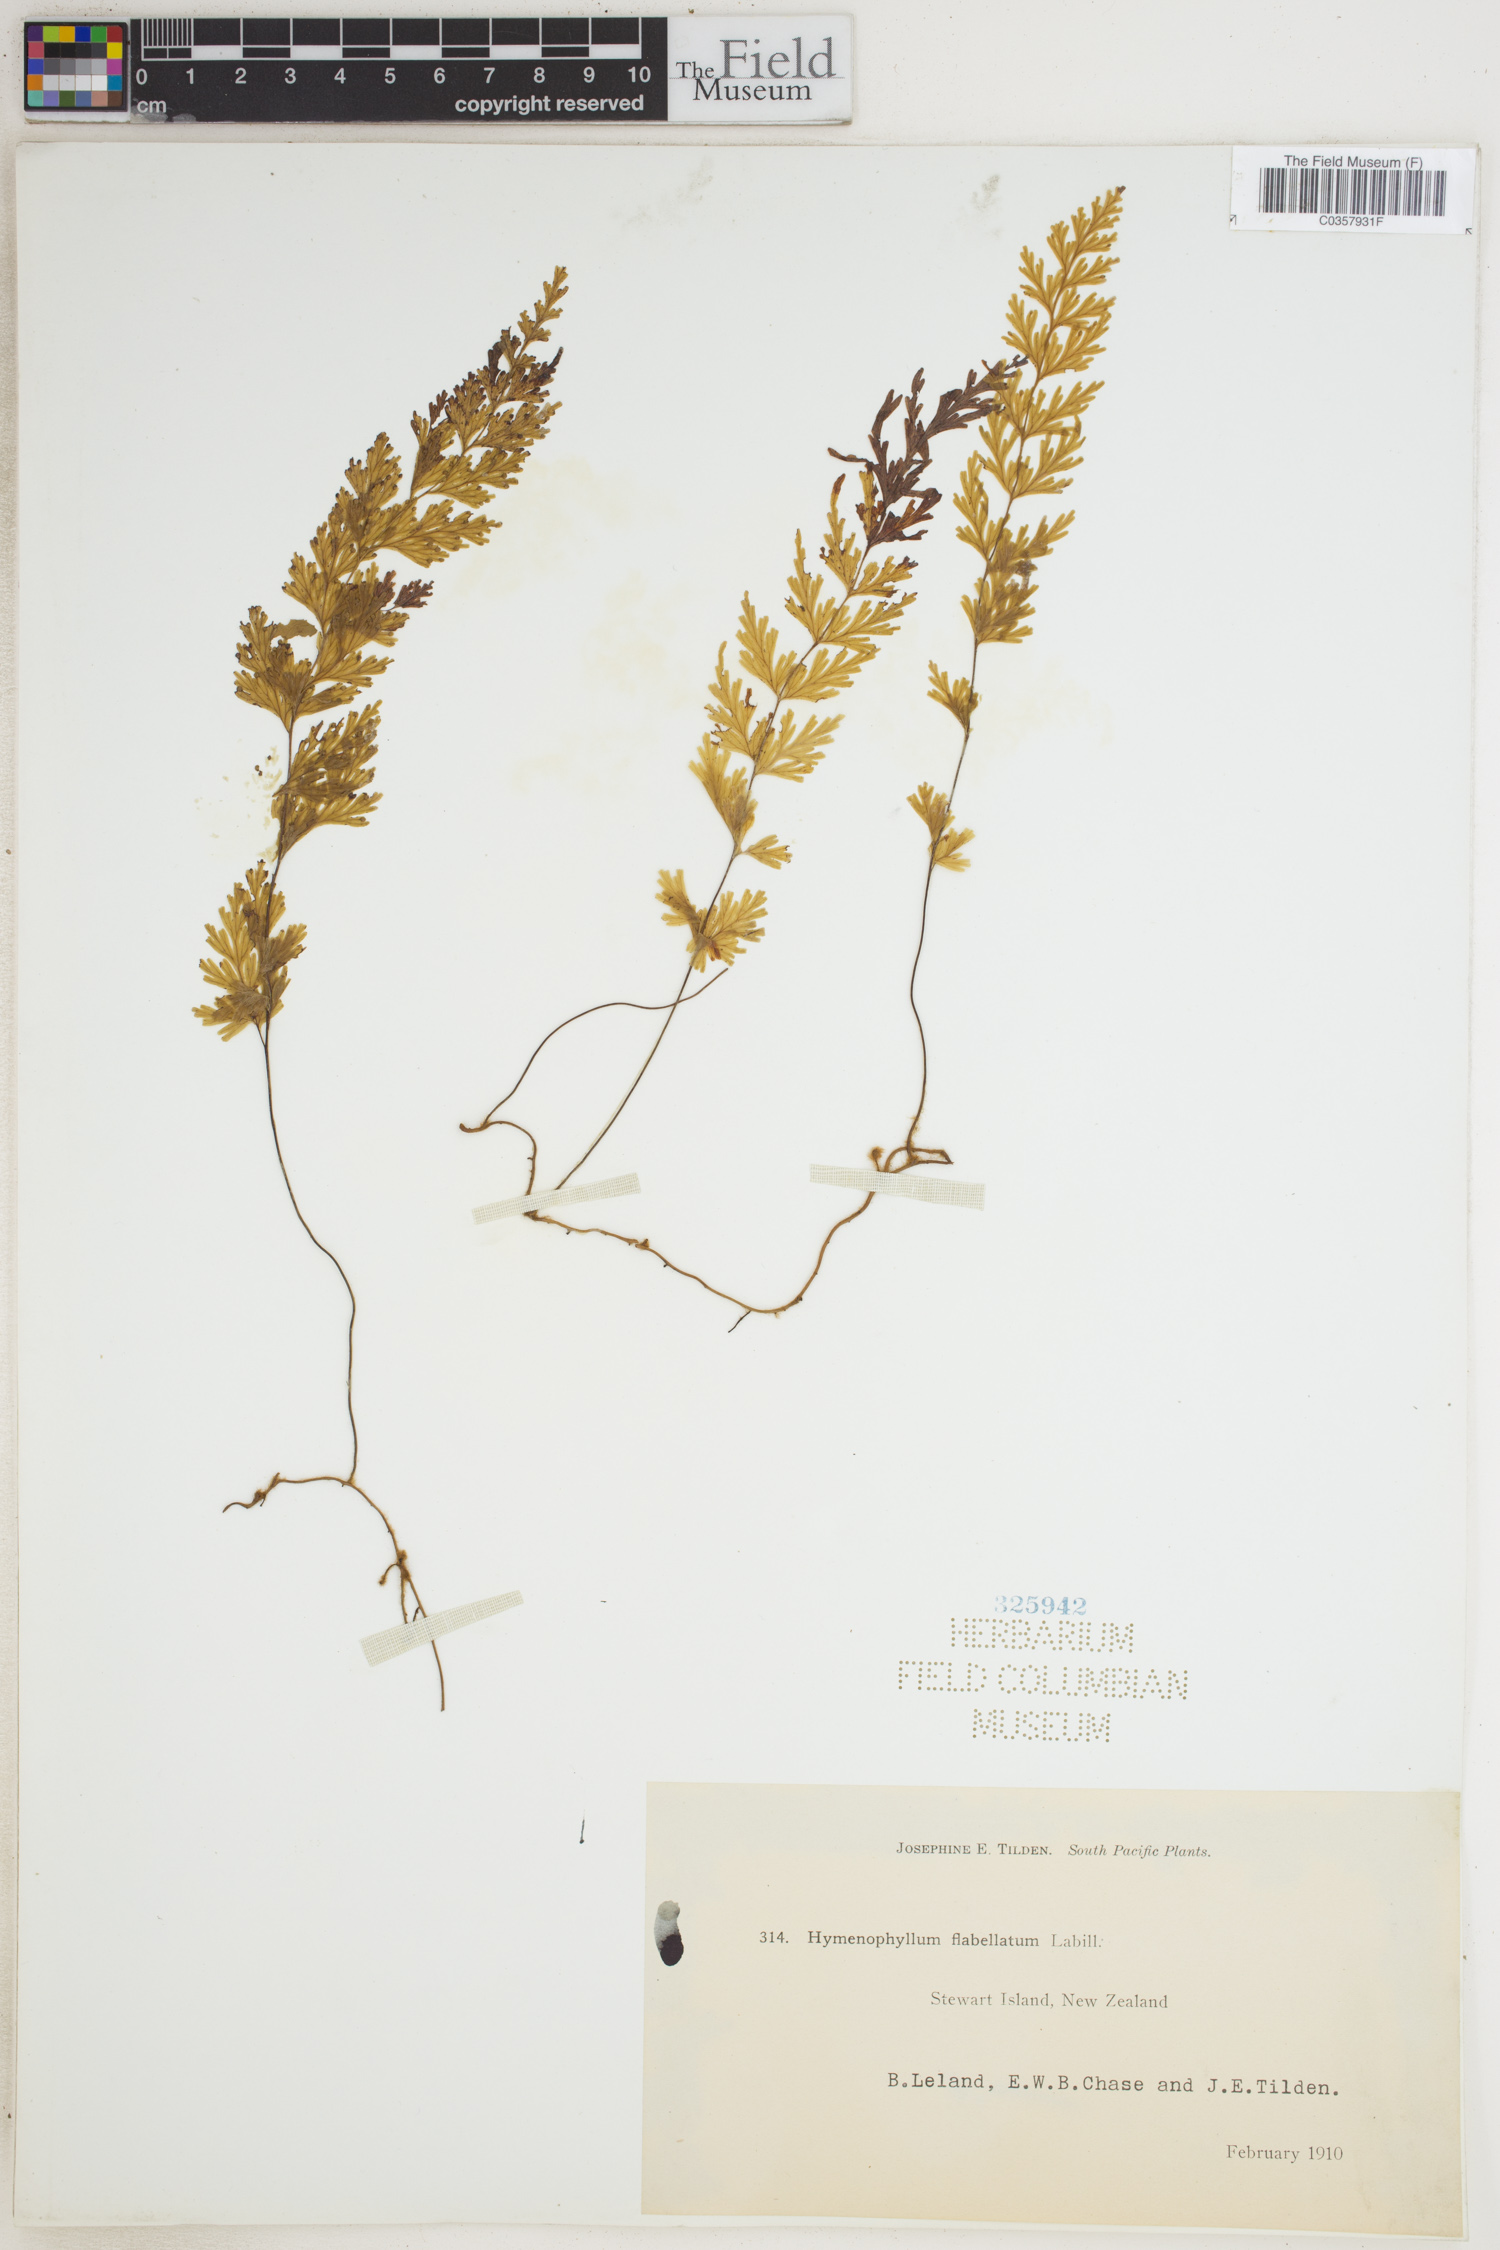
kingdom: Plantae
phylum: Tracheophyta
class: Polypodiopsida
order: Hymenophyllales
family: Hymenophyllaceae
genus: Hymenophyllum
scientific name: Hymenophyllum flabellatum
